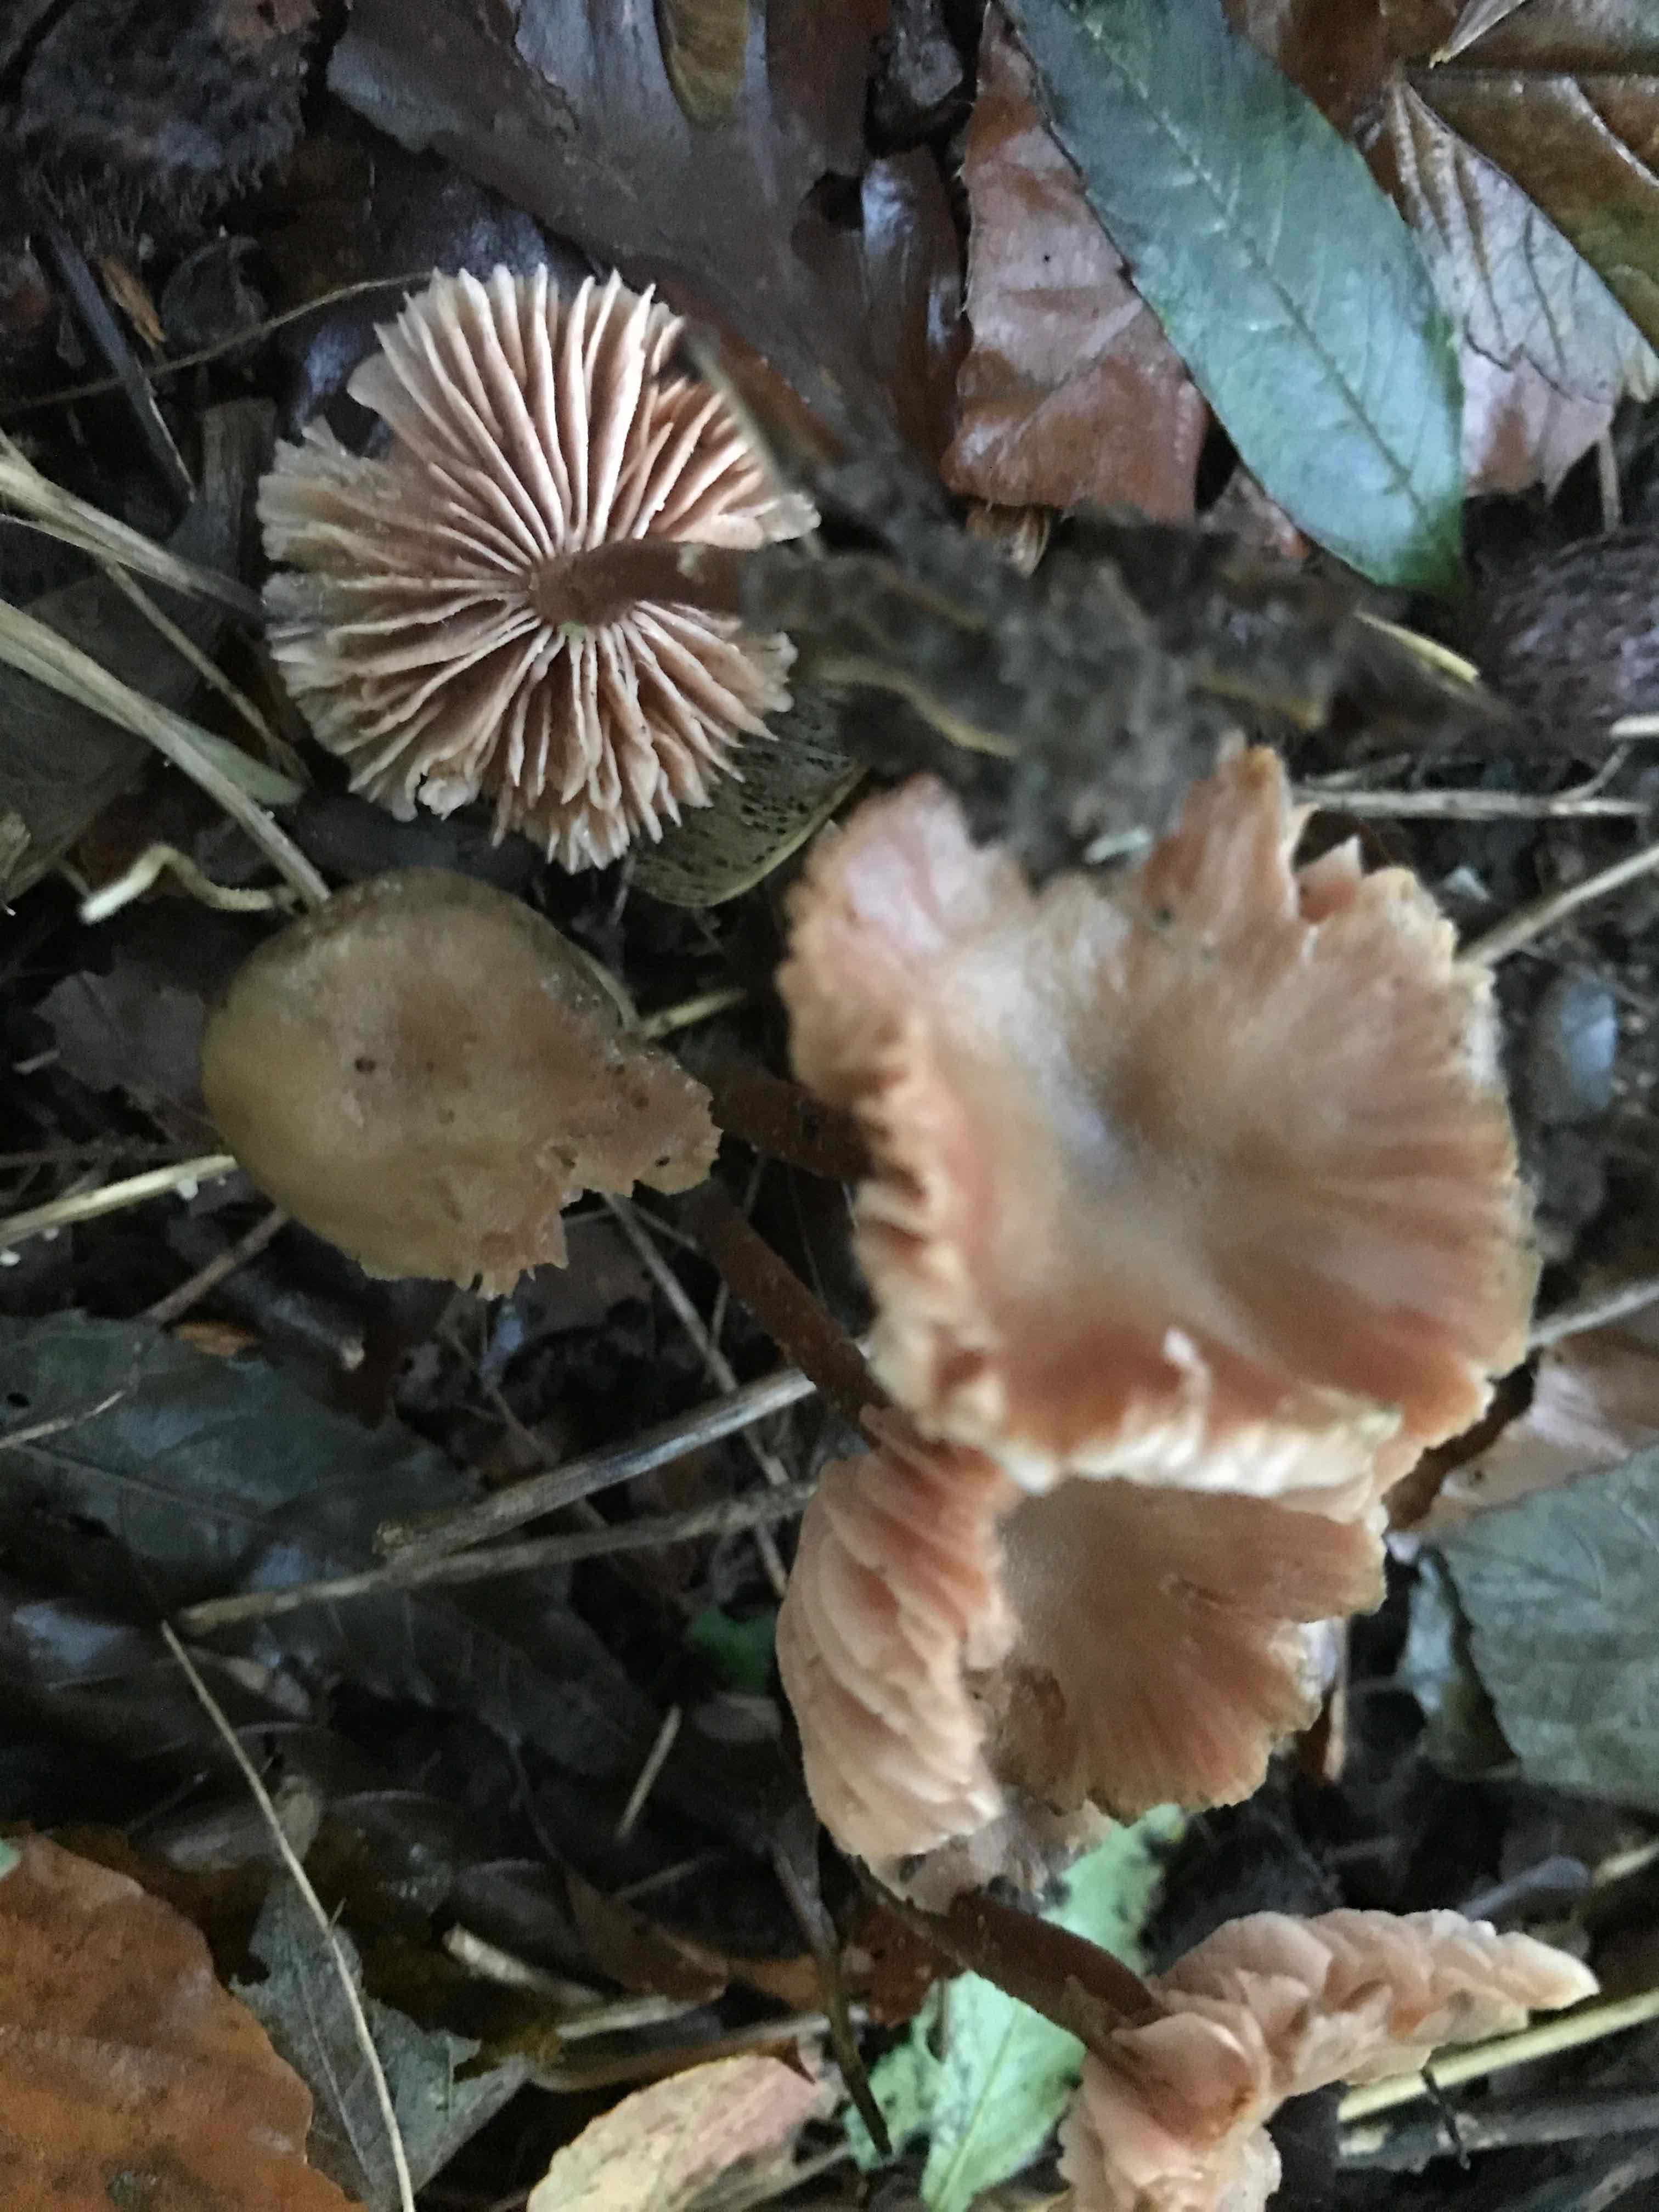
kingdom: Fungi
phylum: Basidiomycota
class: Agaricomycetes
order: Agaricales
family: Hydnangiaceae
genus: Laccaria
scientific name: Laccaria laccata
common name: rød ametysthat
